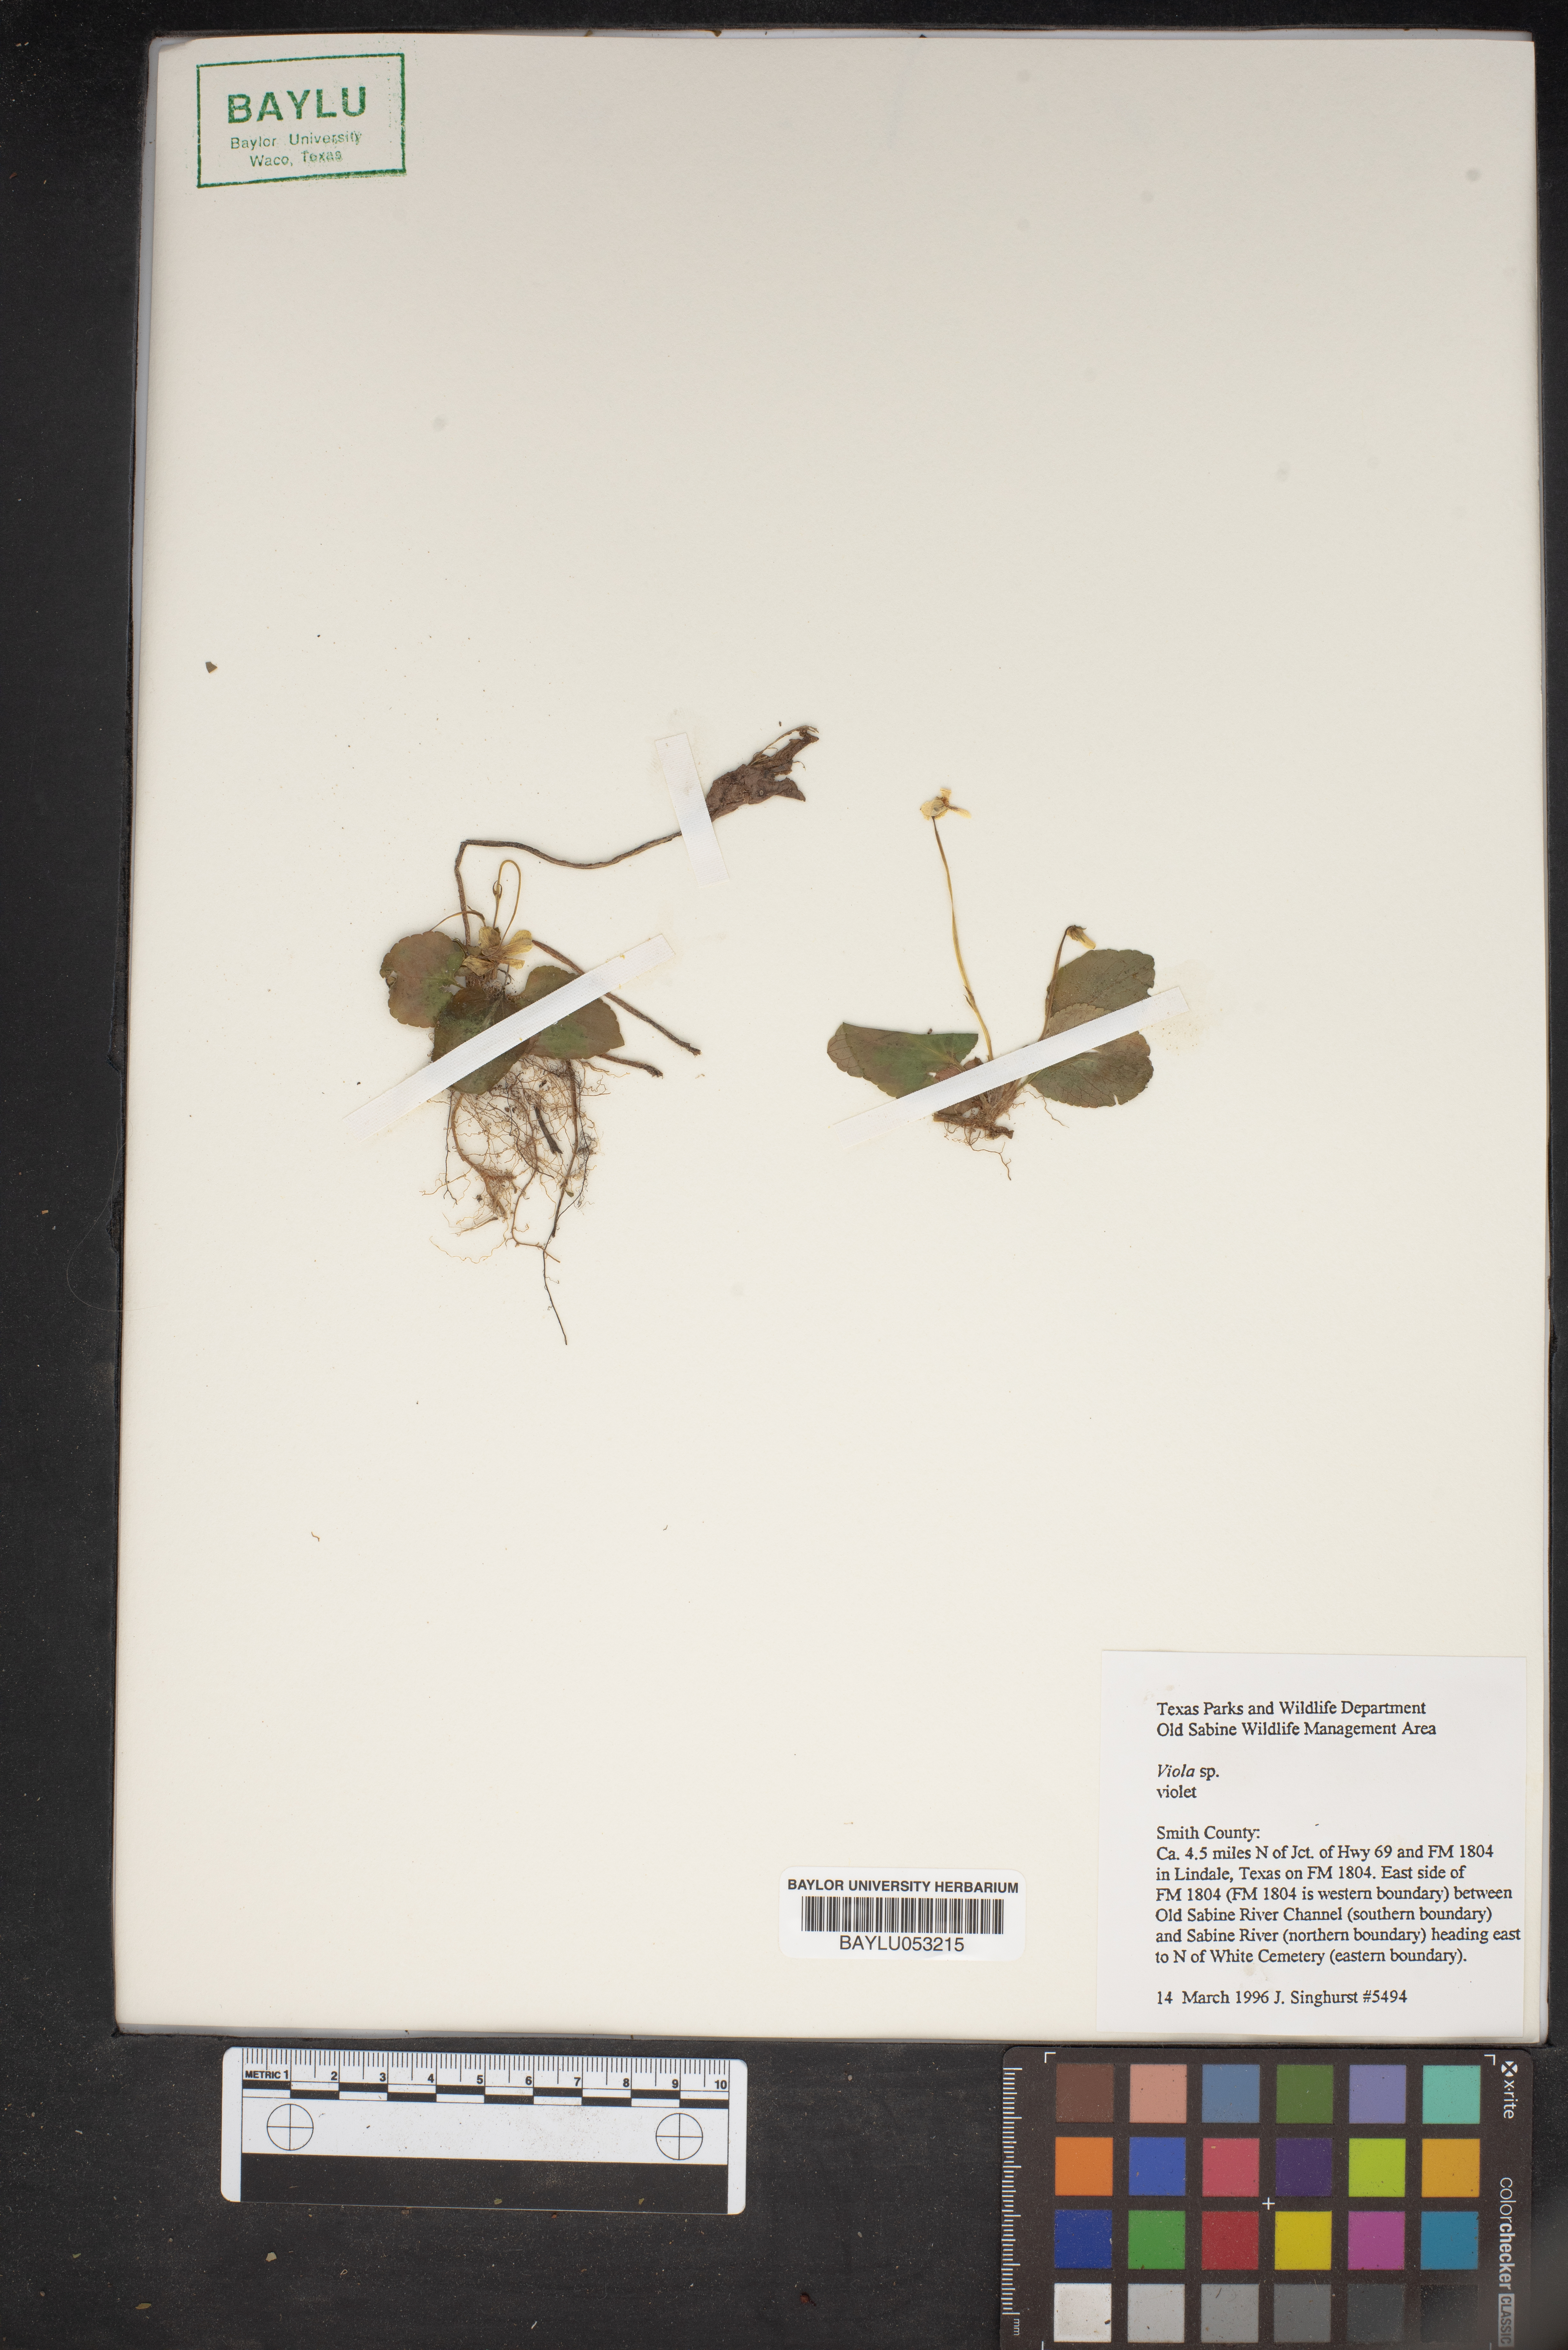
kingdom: Plantae
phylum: Tracheophyta
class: Magnoliopsida
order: Malpighiales
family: Violaceae
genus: Viola
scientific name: Viola
